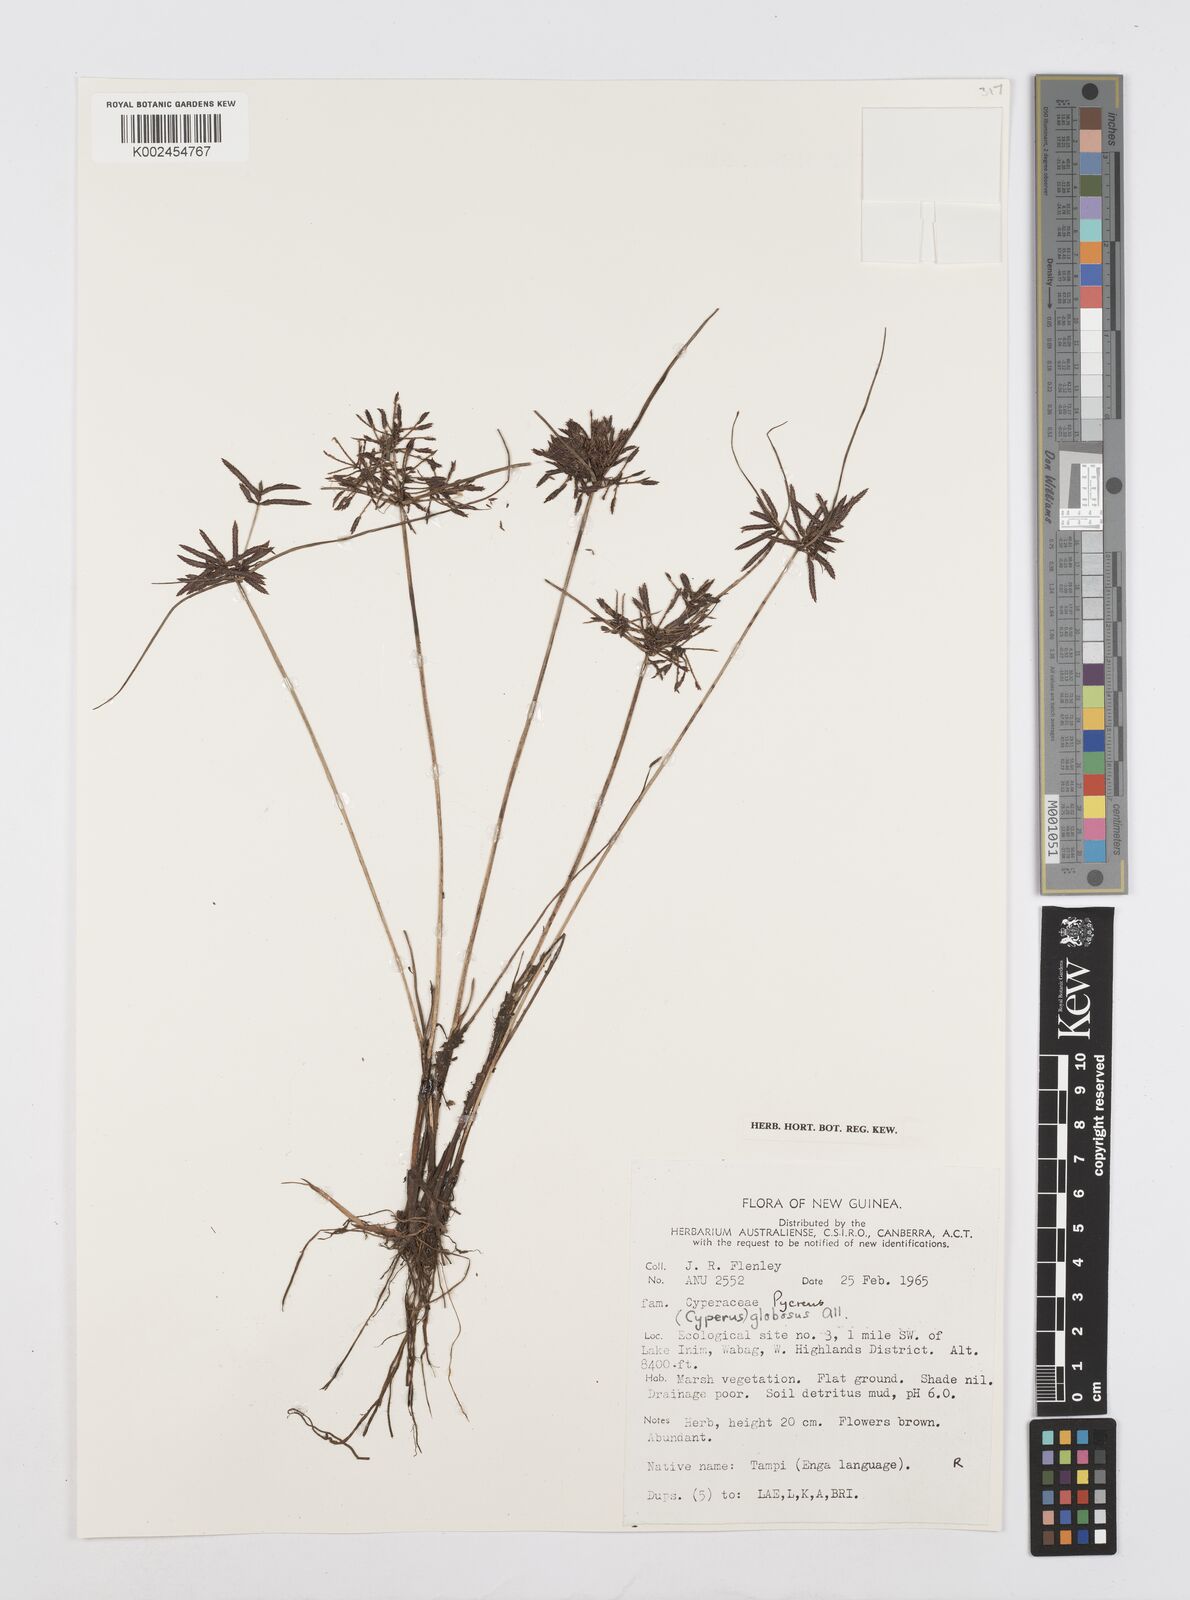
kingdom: Plantae
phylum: Tracheophyta
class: Liliopsida
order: Poales
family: Cyperaceae
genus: Cyperus
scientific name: Cyperus flavidus
